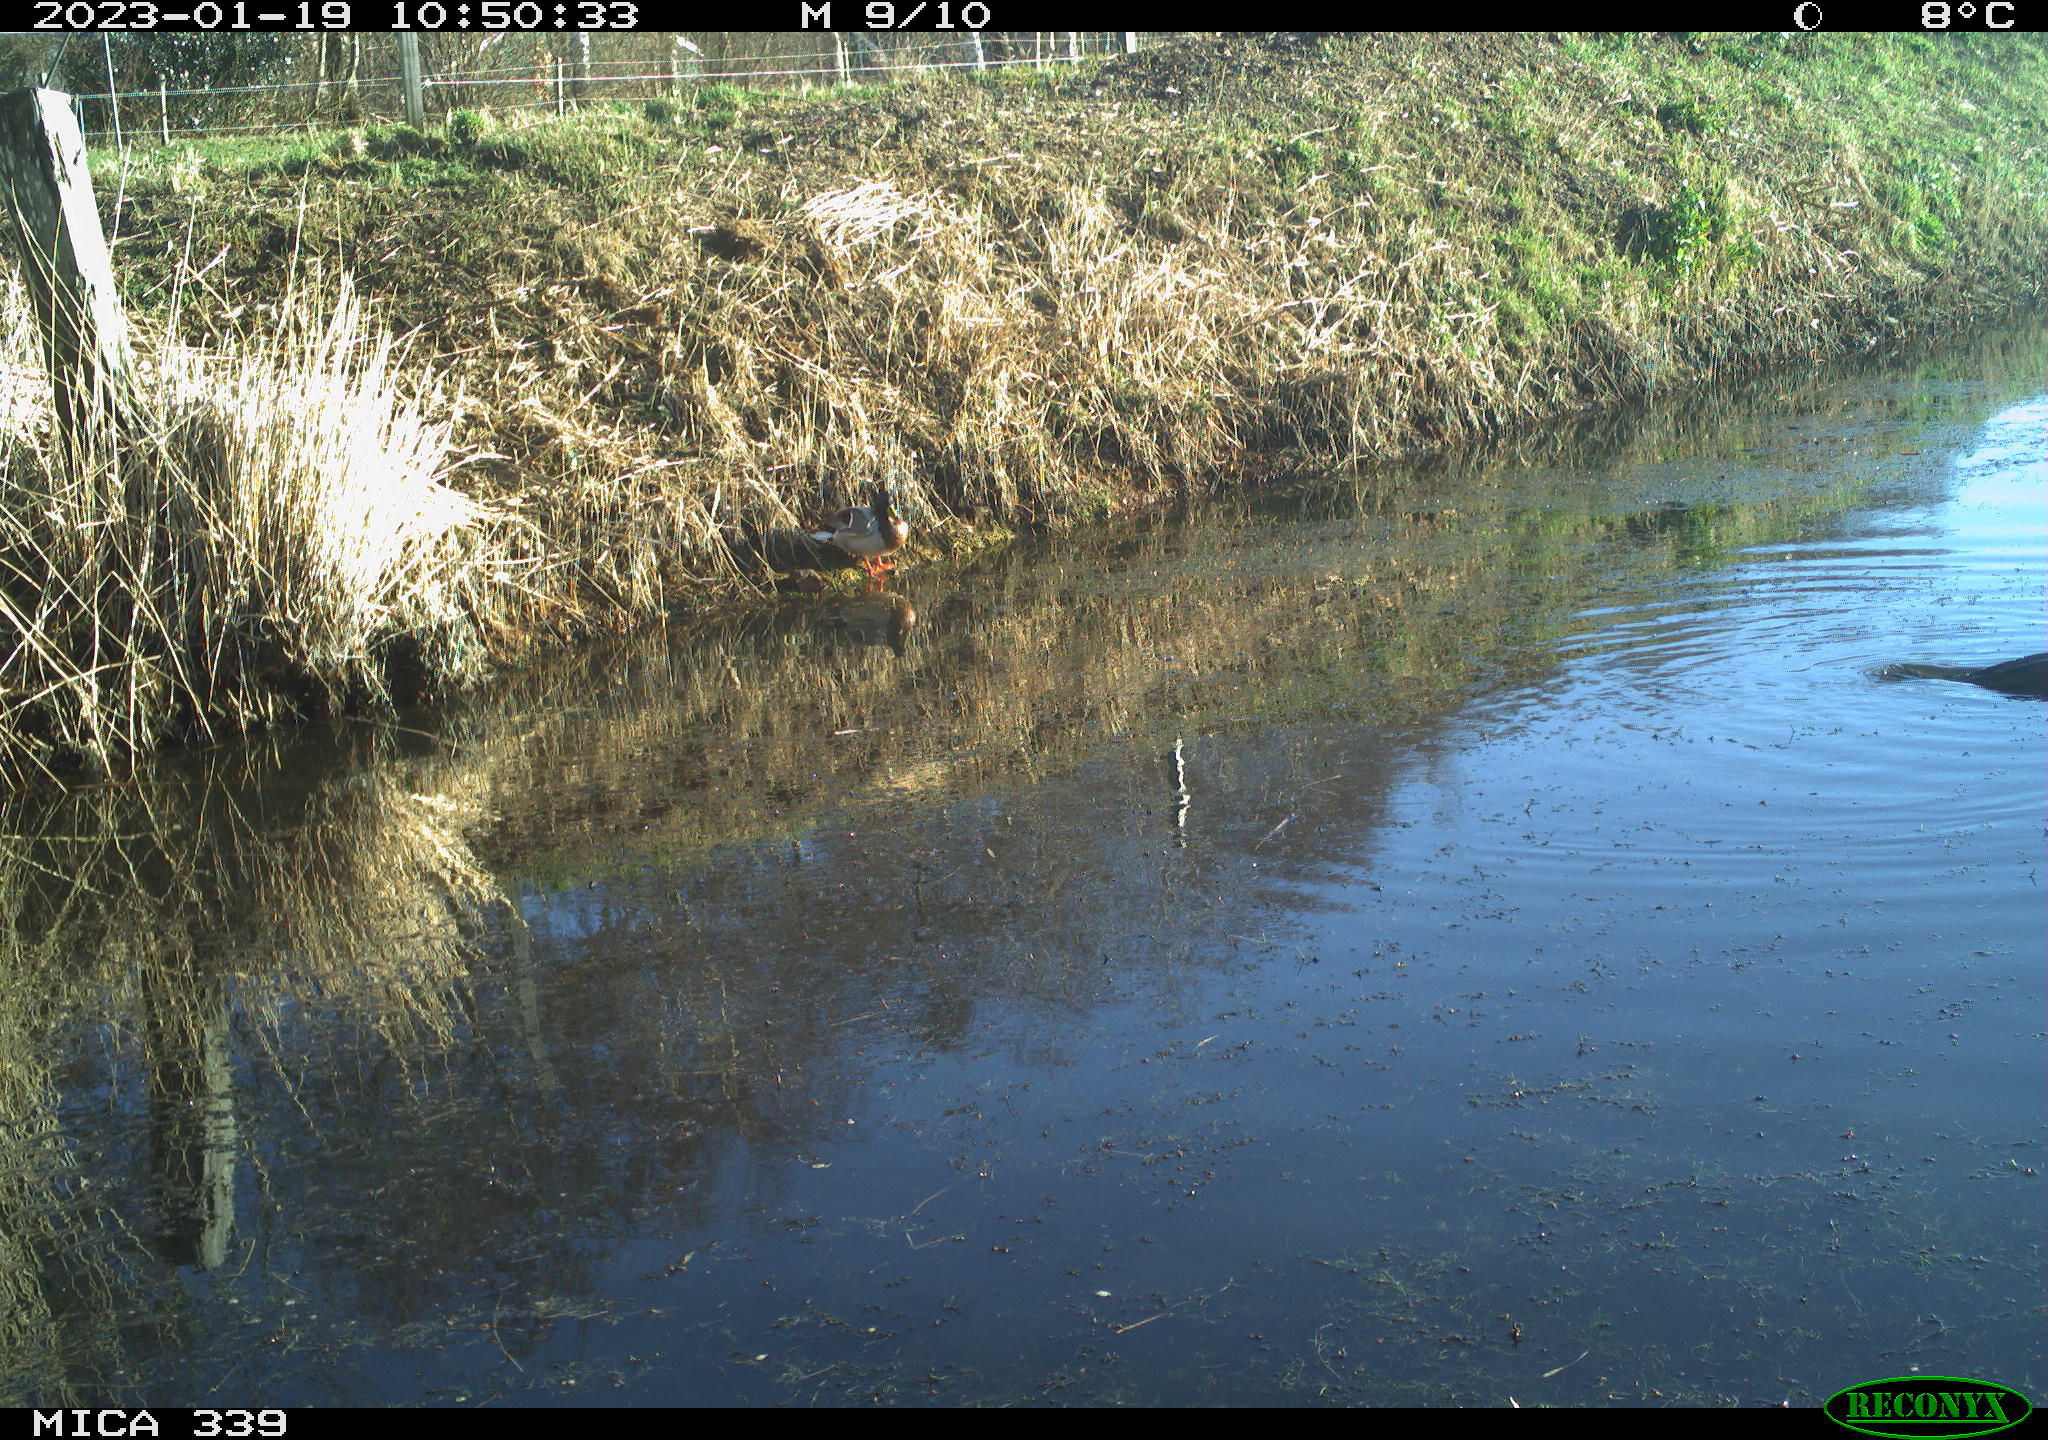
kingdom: Animalia
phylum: Chordata
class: Aves
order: Anseriformes
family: Anatidae
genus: Anas
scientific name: Anas
